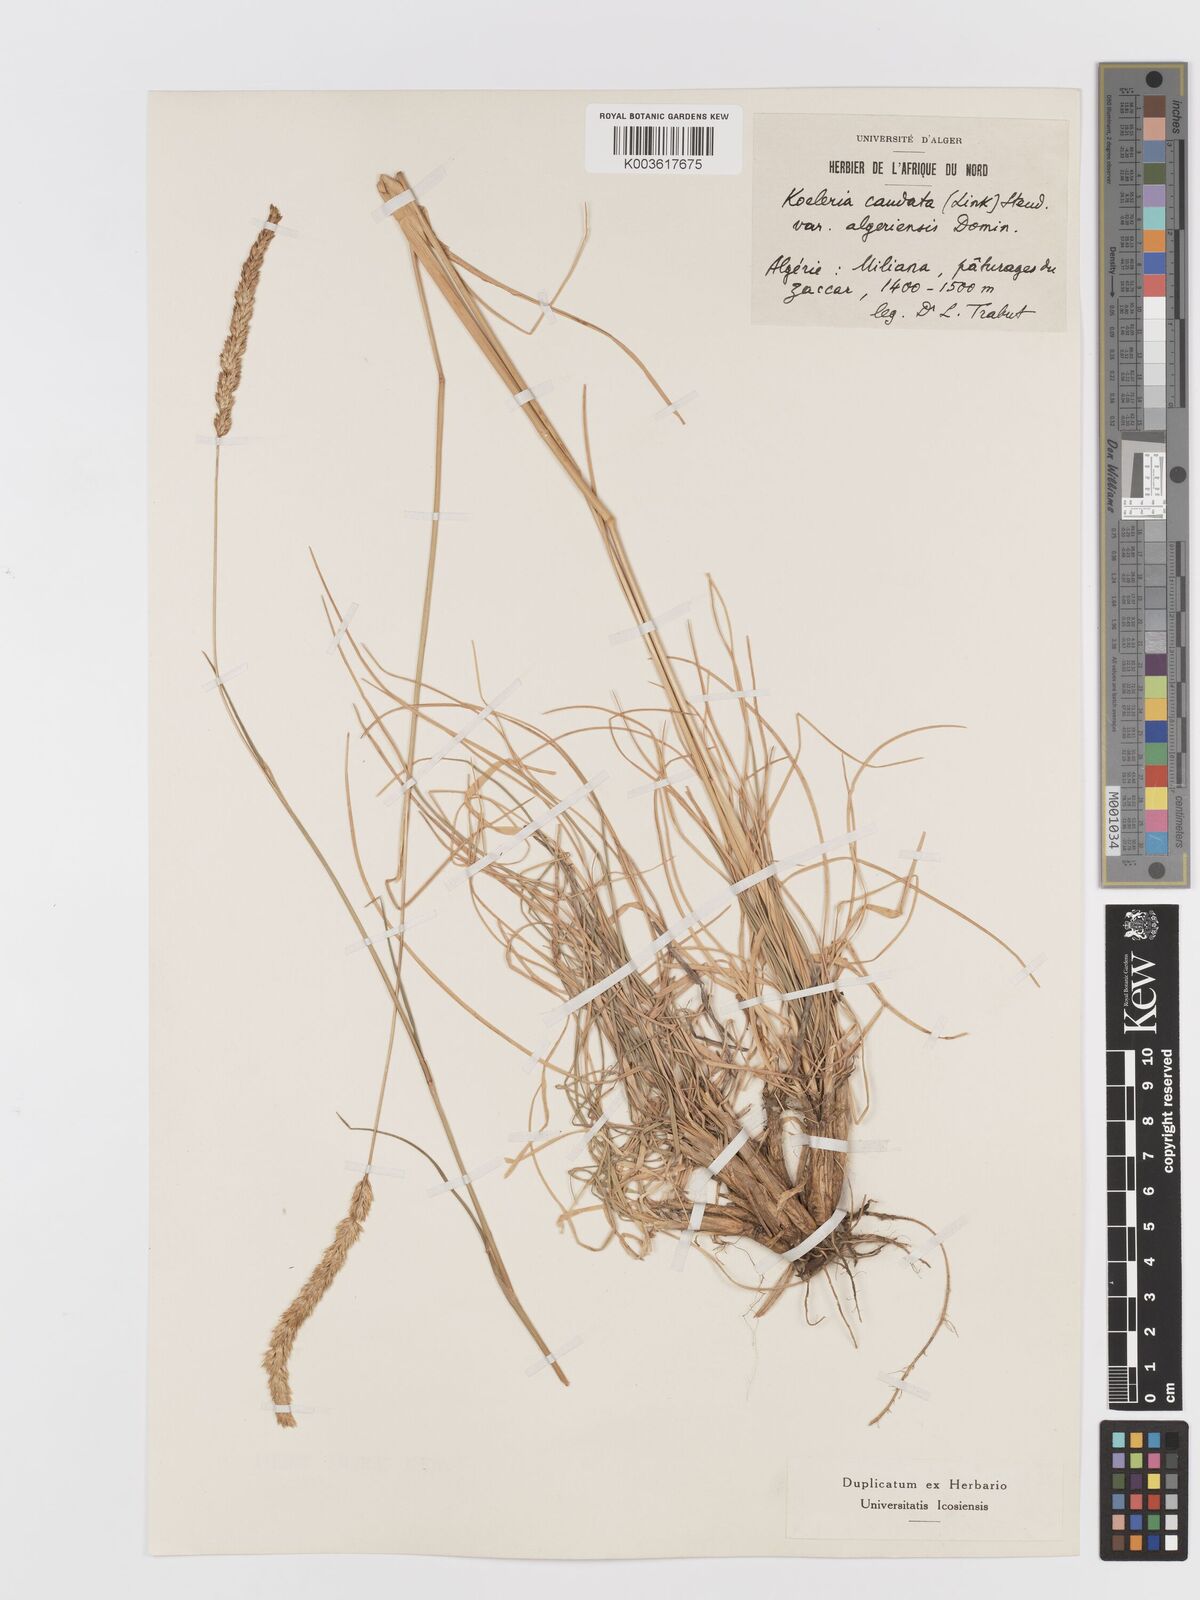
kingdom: Plantae
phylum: Tracheophyta
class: Liliopsida
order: Poales
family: Poaceae
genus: Koeleria
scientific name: Koeleria
